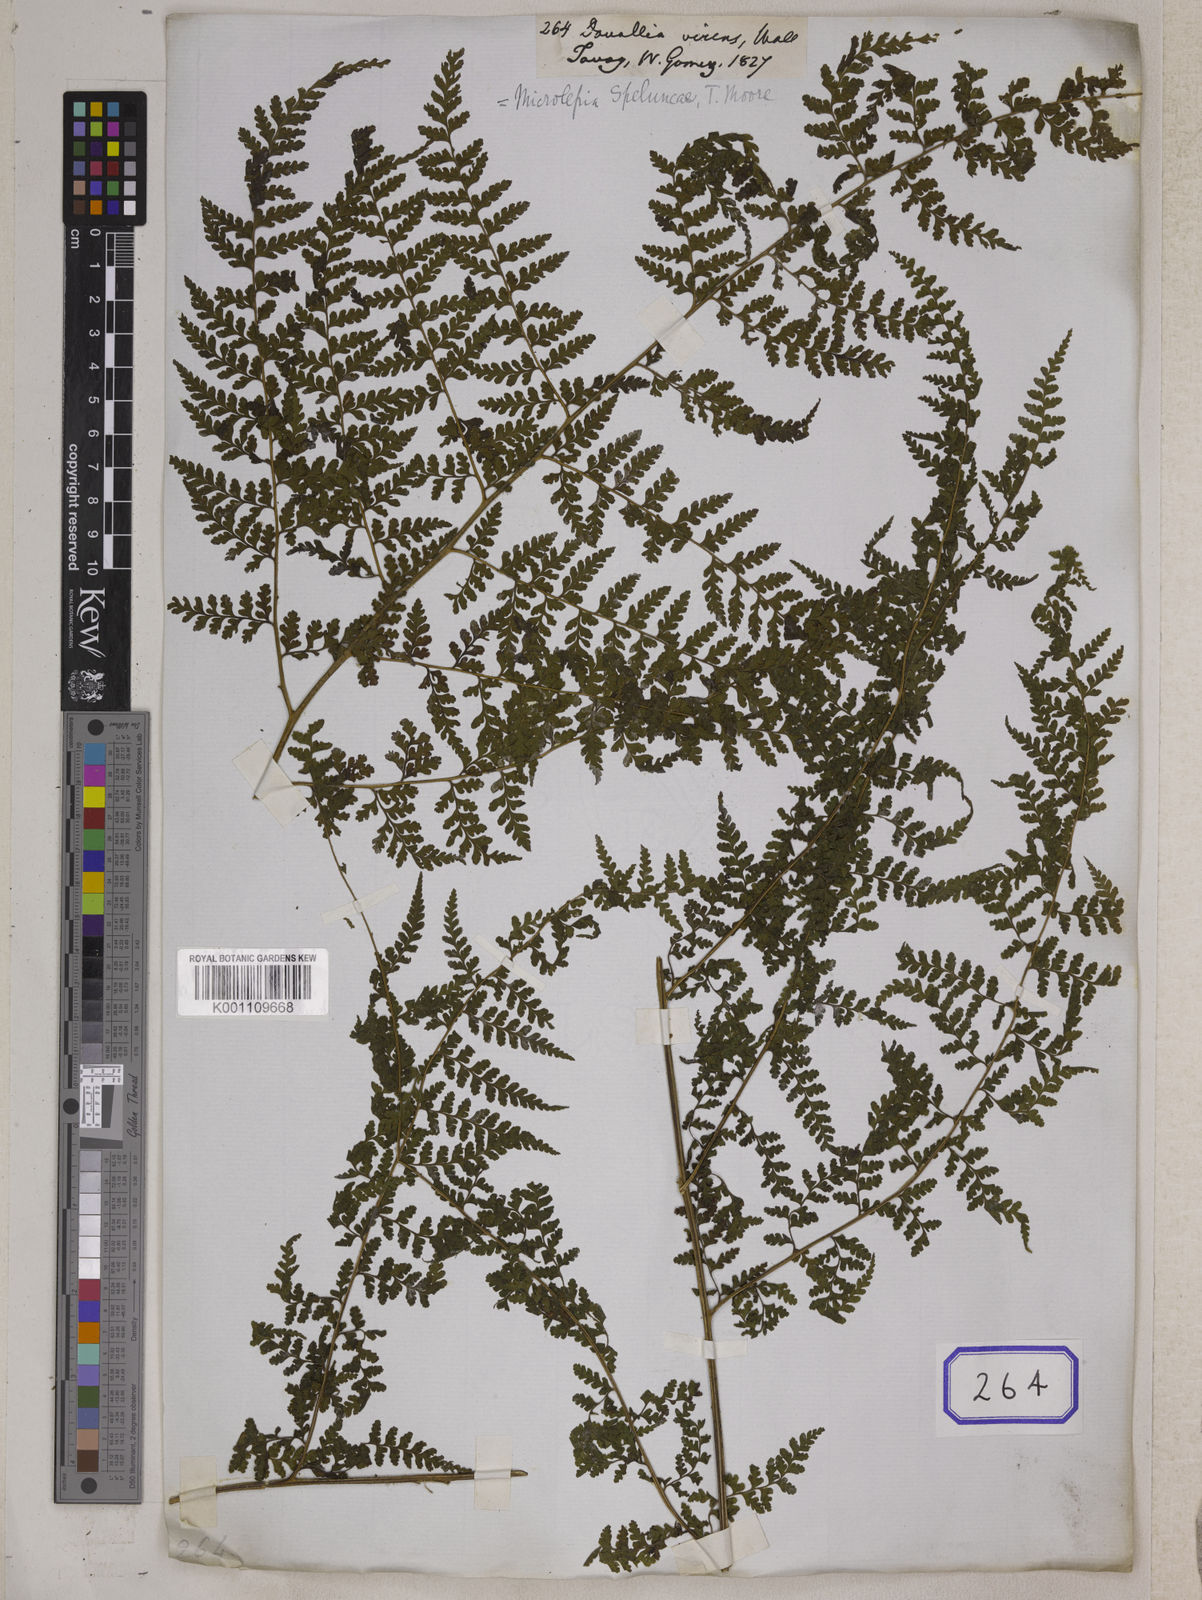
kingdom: Plantae
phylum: Tracheophyta
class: Polypodiopsida
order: Polypodiales
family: Dennstaedtiaceae
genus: Microlepia
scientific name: Microlepia speluncae
